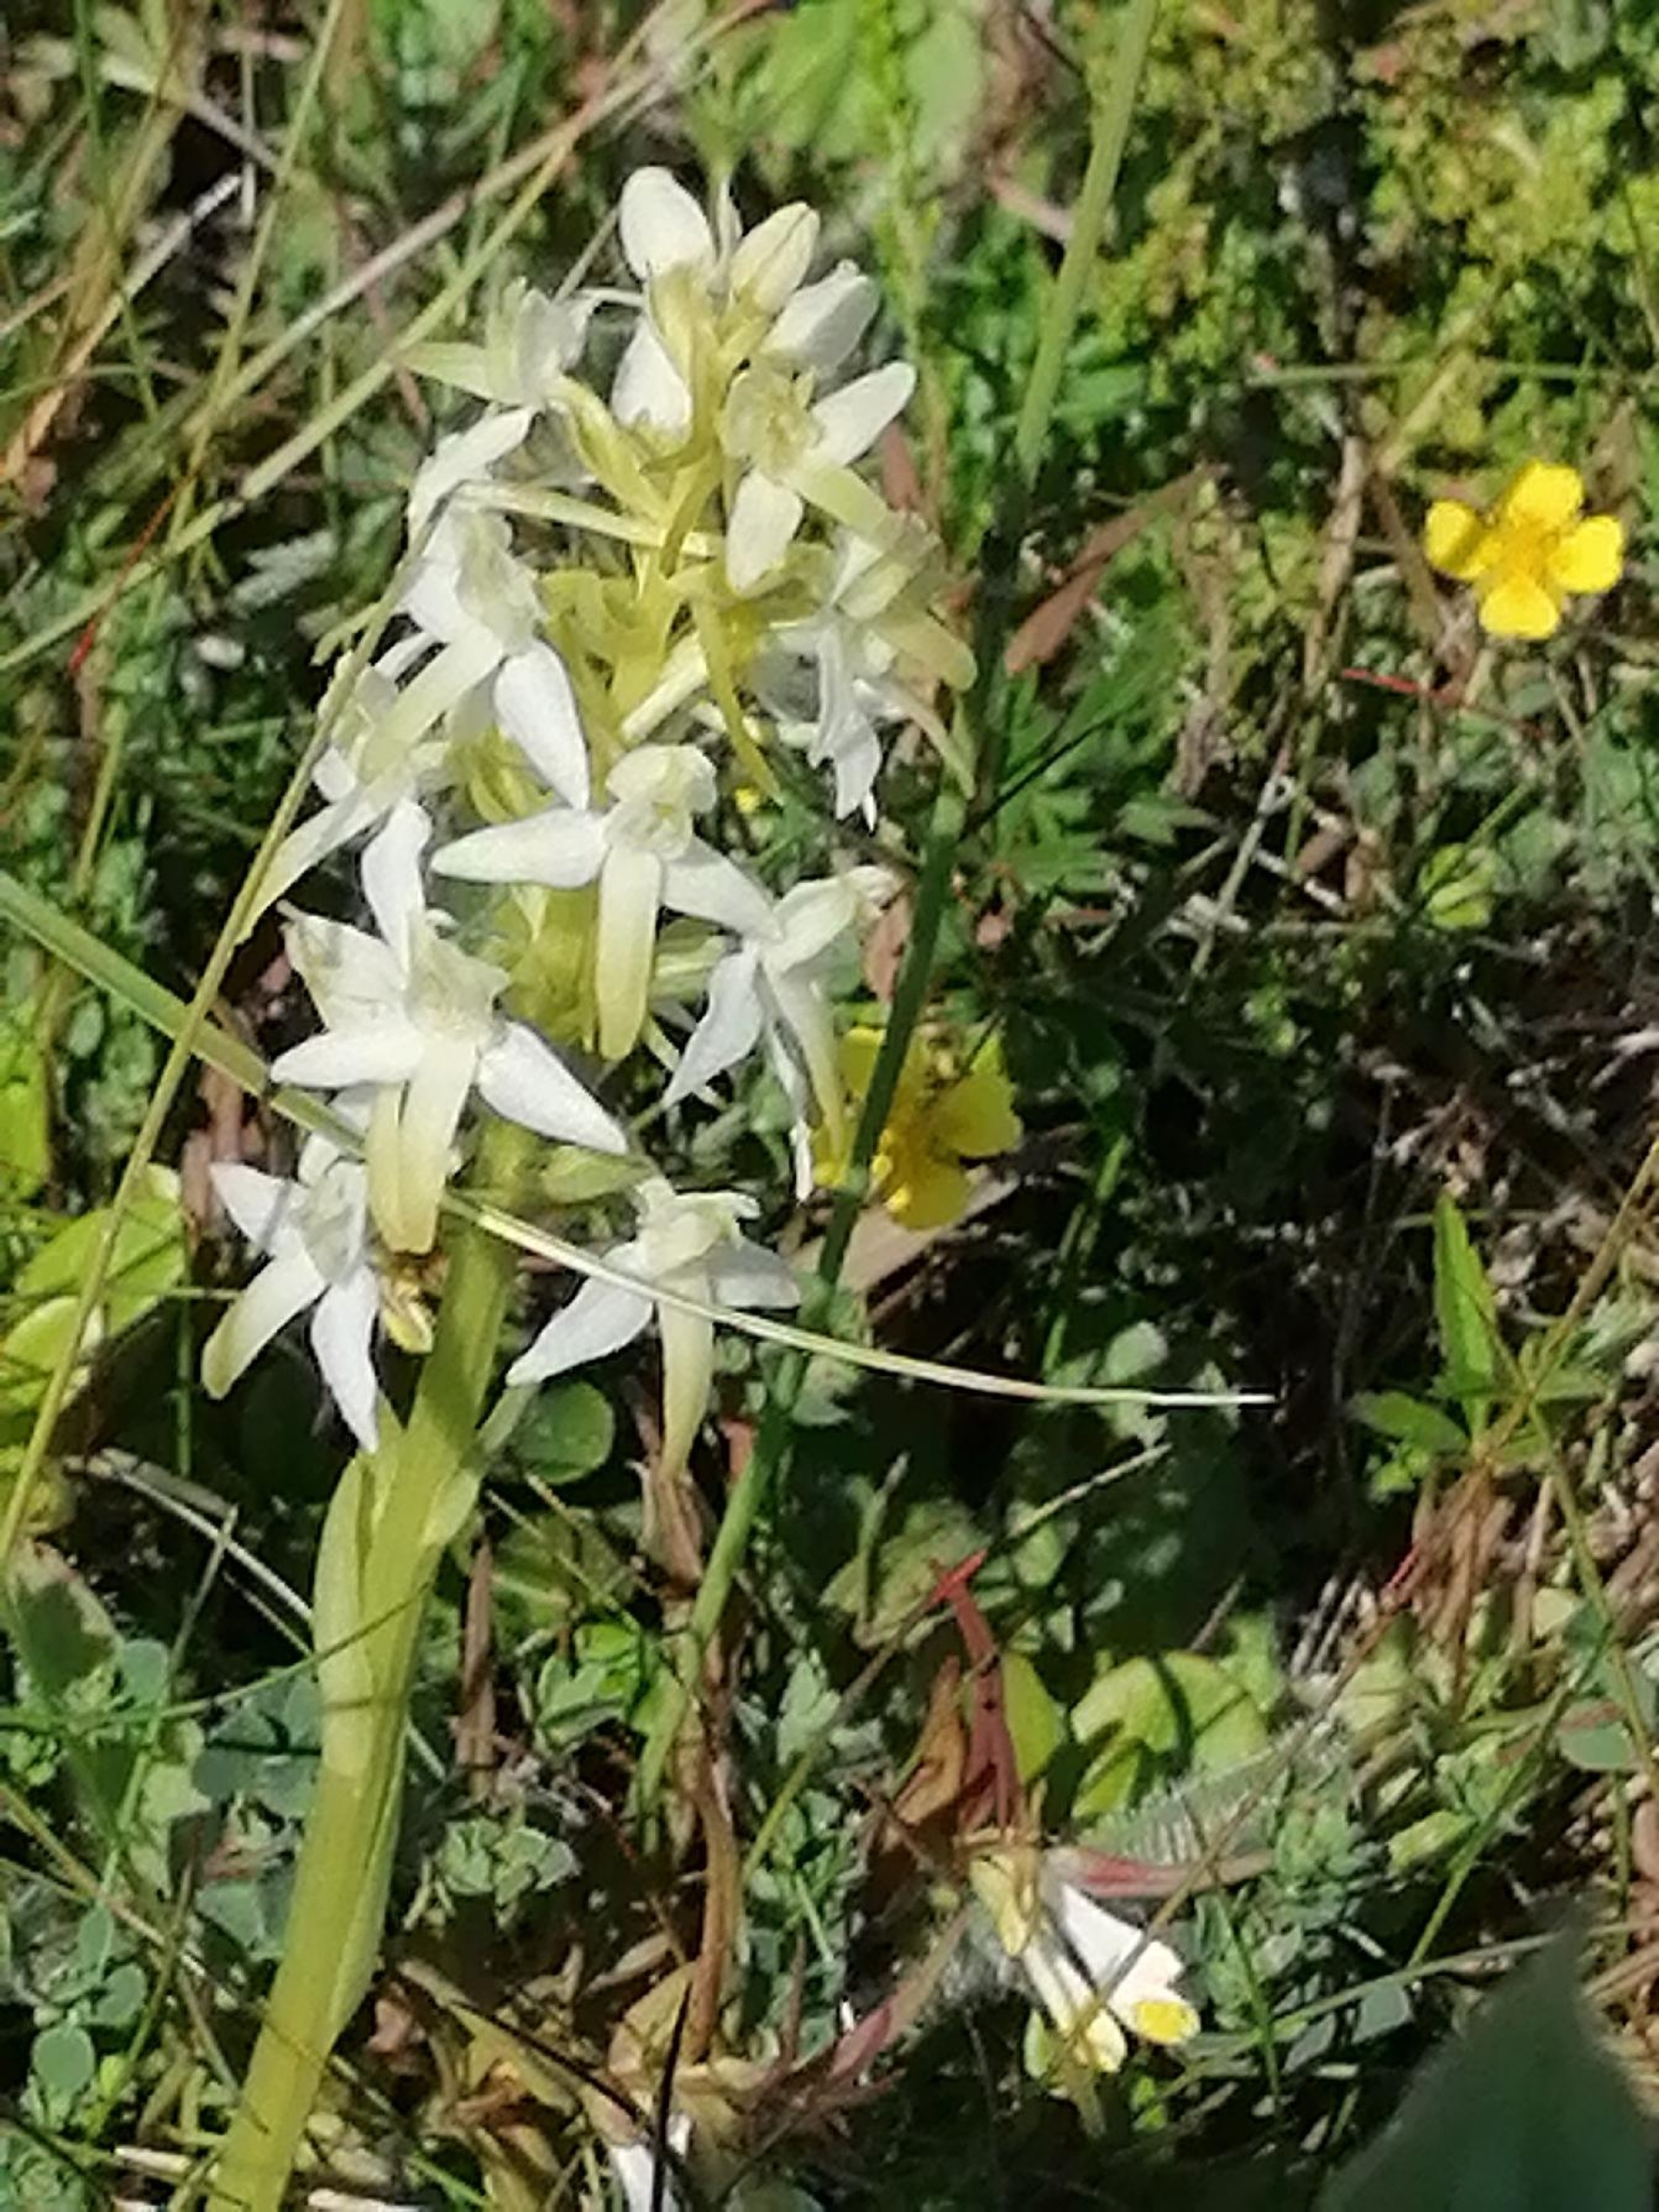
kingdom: Plantae
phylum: Tracheophyta
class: Liliopsida
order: Asparagales
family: Orchidaceae
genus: Platanthera
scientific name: Platanthera bifolia
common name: Bakke-gøgelilje
